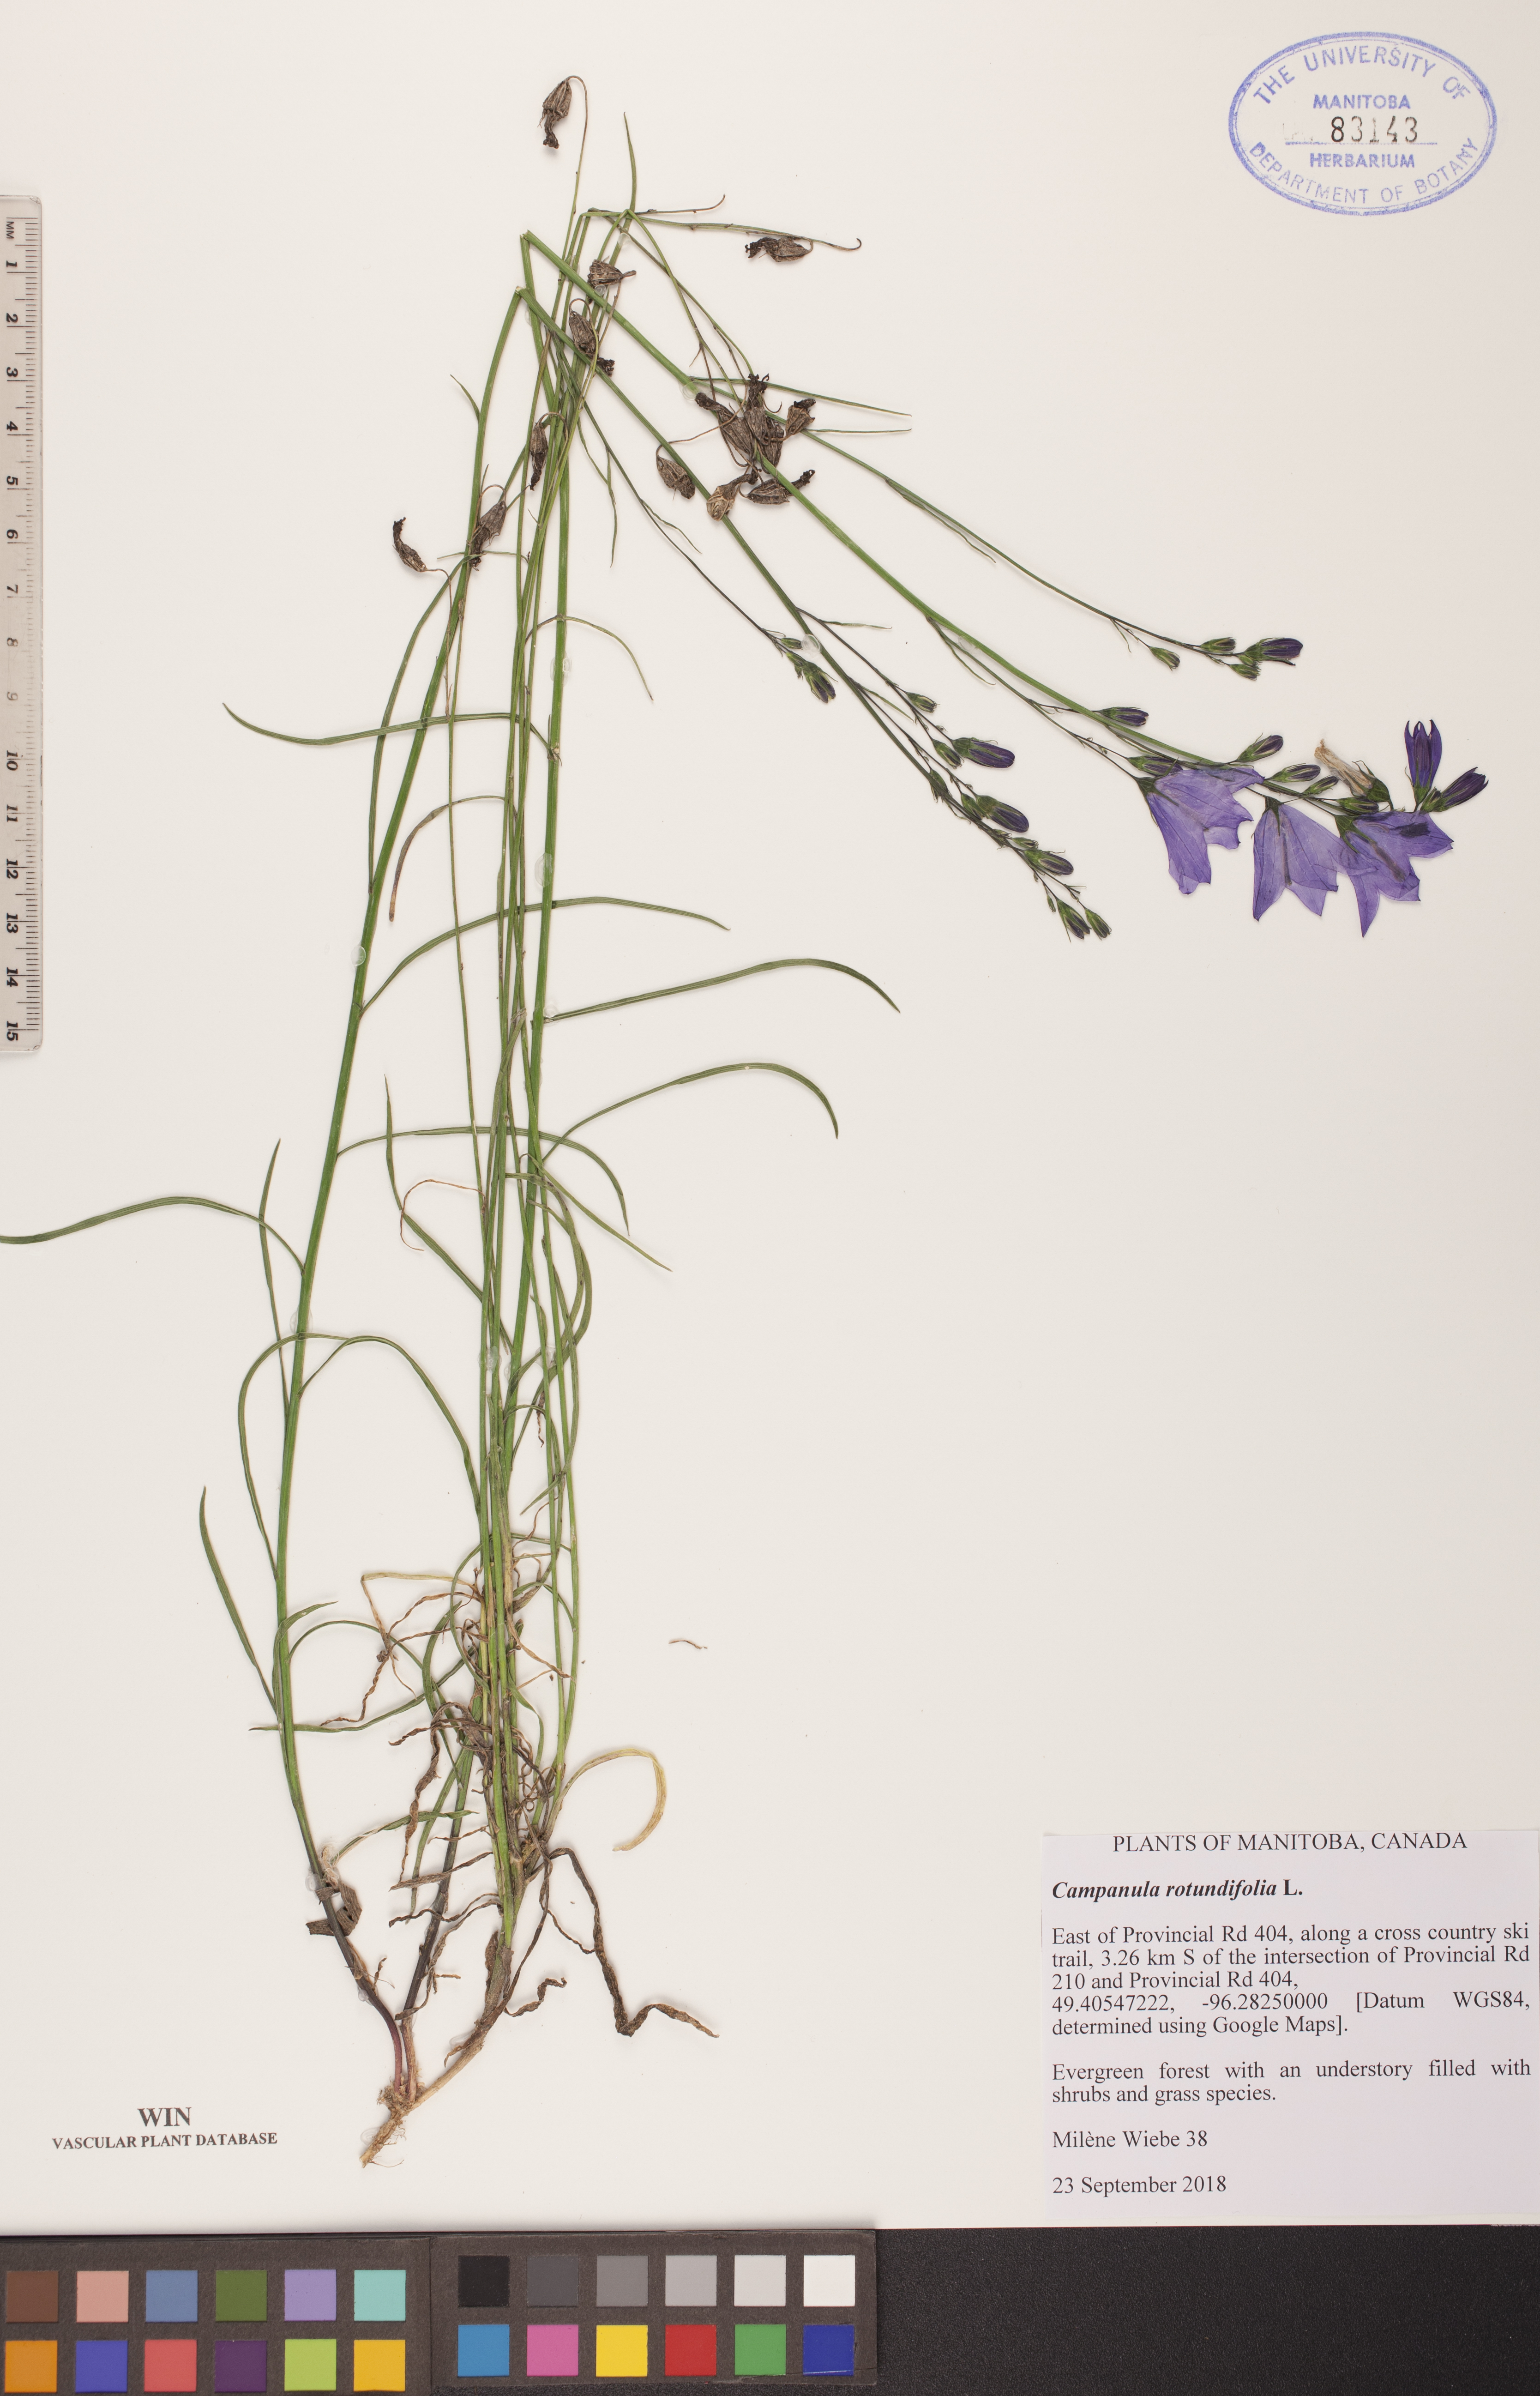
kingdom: Plantae
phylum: Tracheophyta
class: Magnoliopsida
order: Asterales
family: Campanulaceae
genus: Campanula
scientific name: Campanula rotundifolia
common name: Harebell
